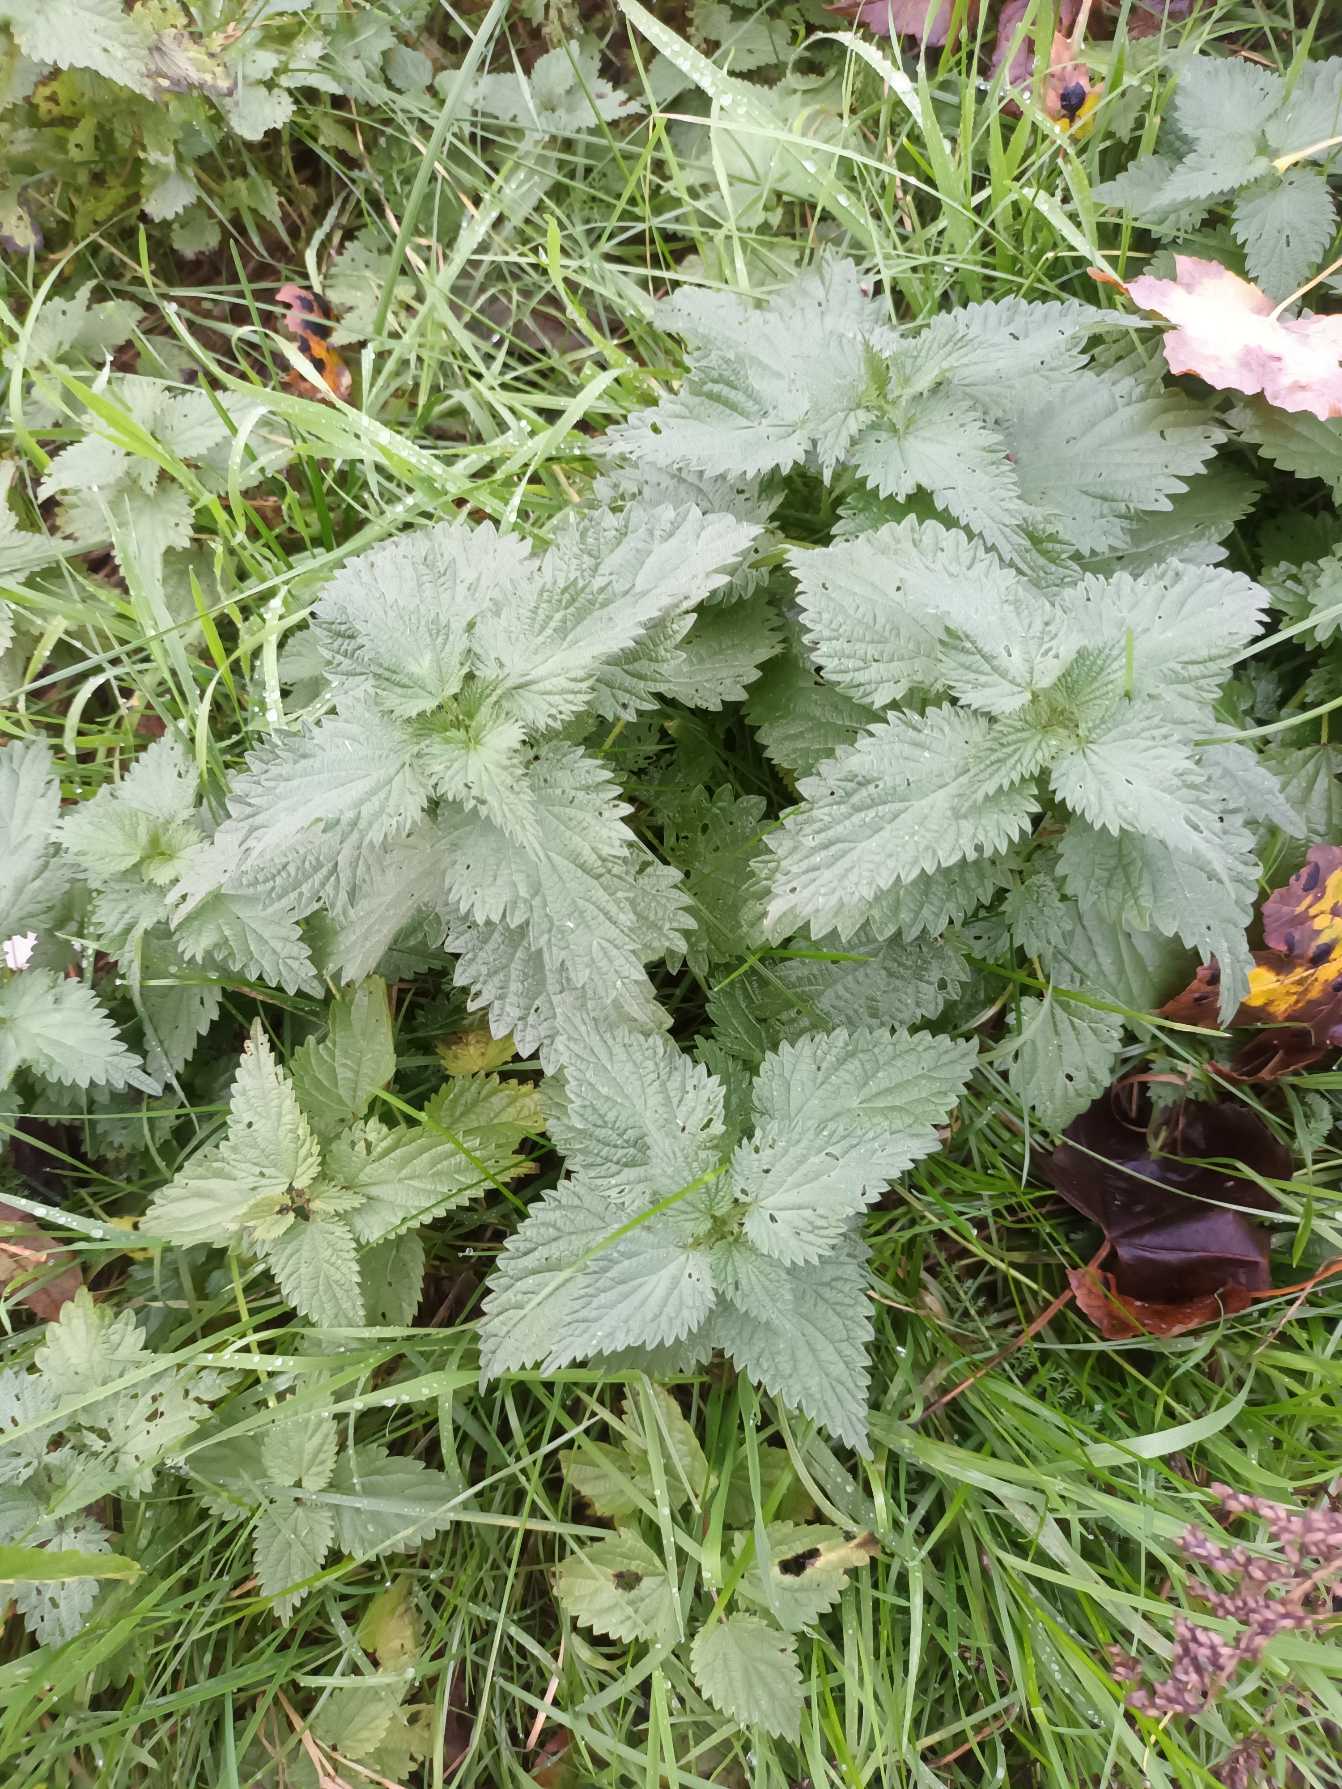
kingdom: Plantae
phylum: Tracheophyta
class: Magnoliopsida
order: Rosales
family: Urticaceae
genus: Urtica
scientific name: Urtica dioica
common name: Stor nælde
